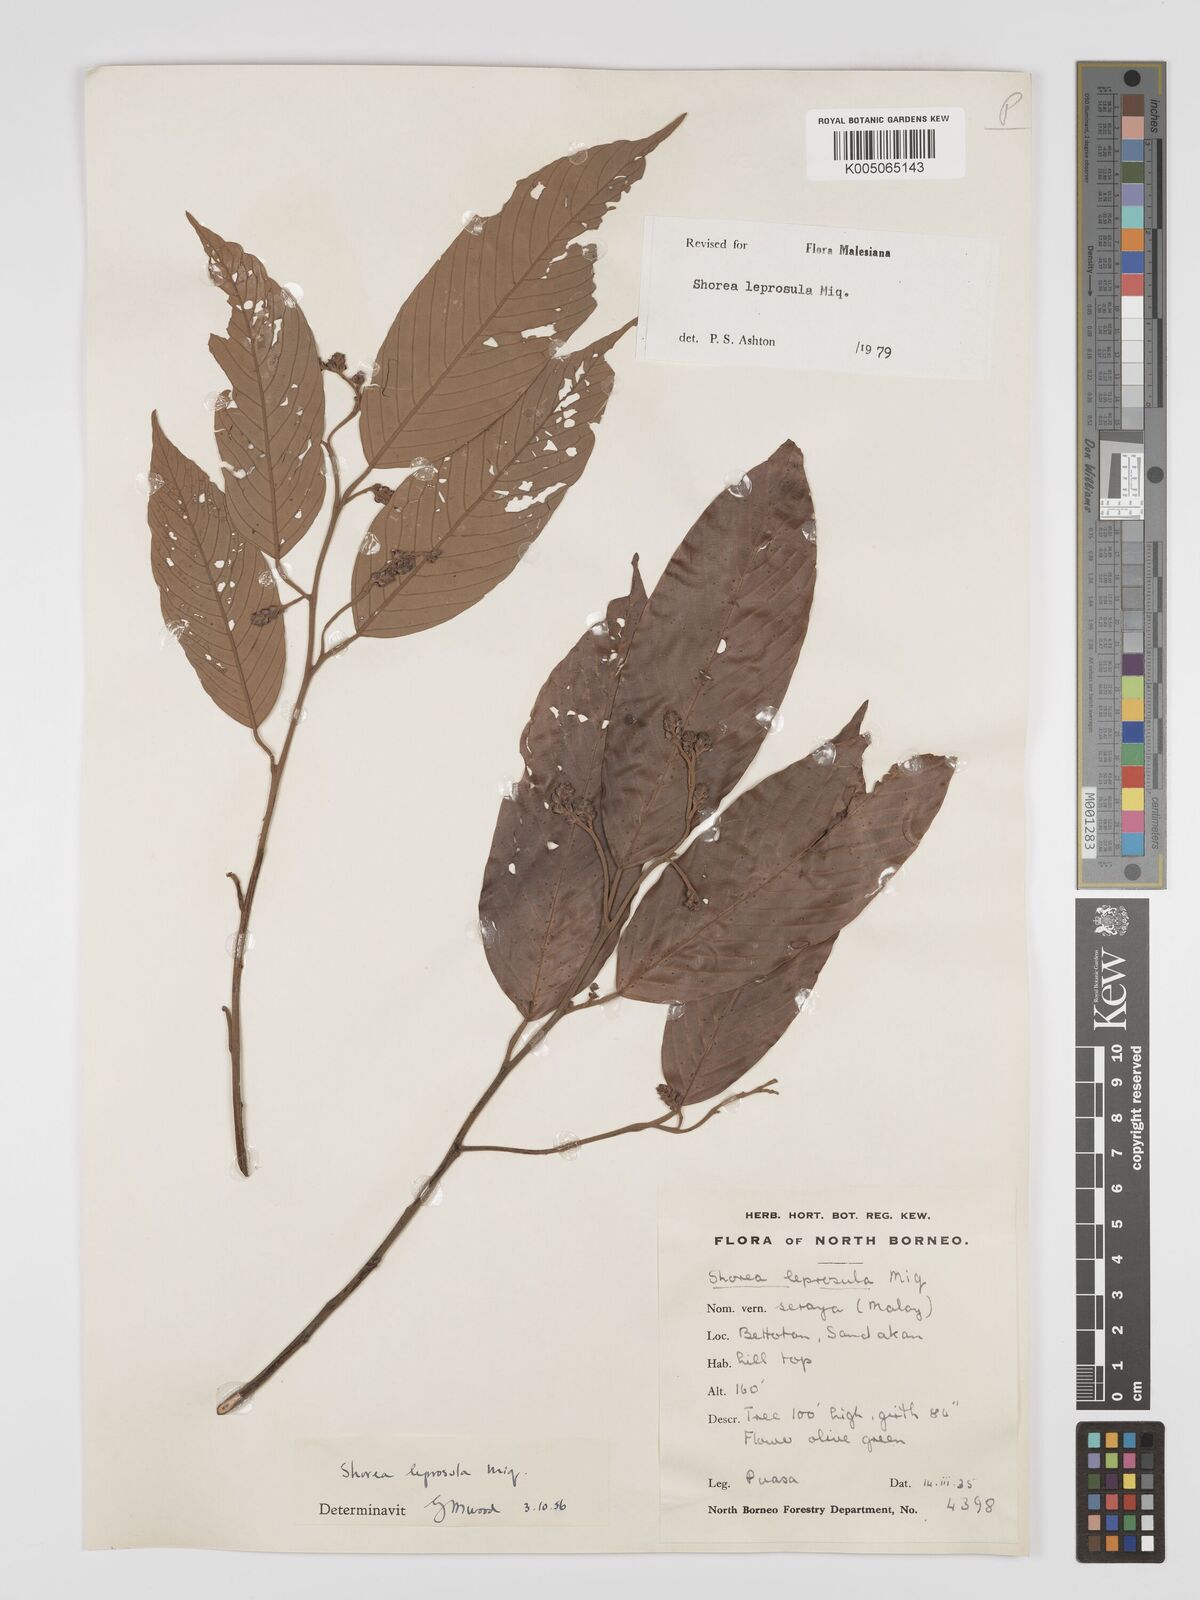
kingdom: Plantae
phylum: Tracheophyta
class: Magnoliopsida
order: Malvales
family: Dipterocarpaceae
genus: Shorea
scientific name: Shorea leprosula
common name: Light red meranti
